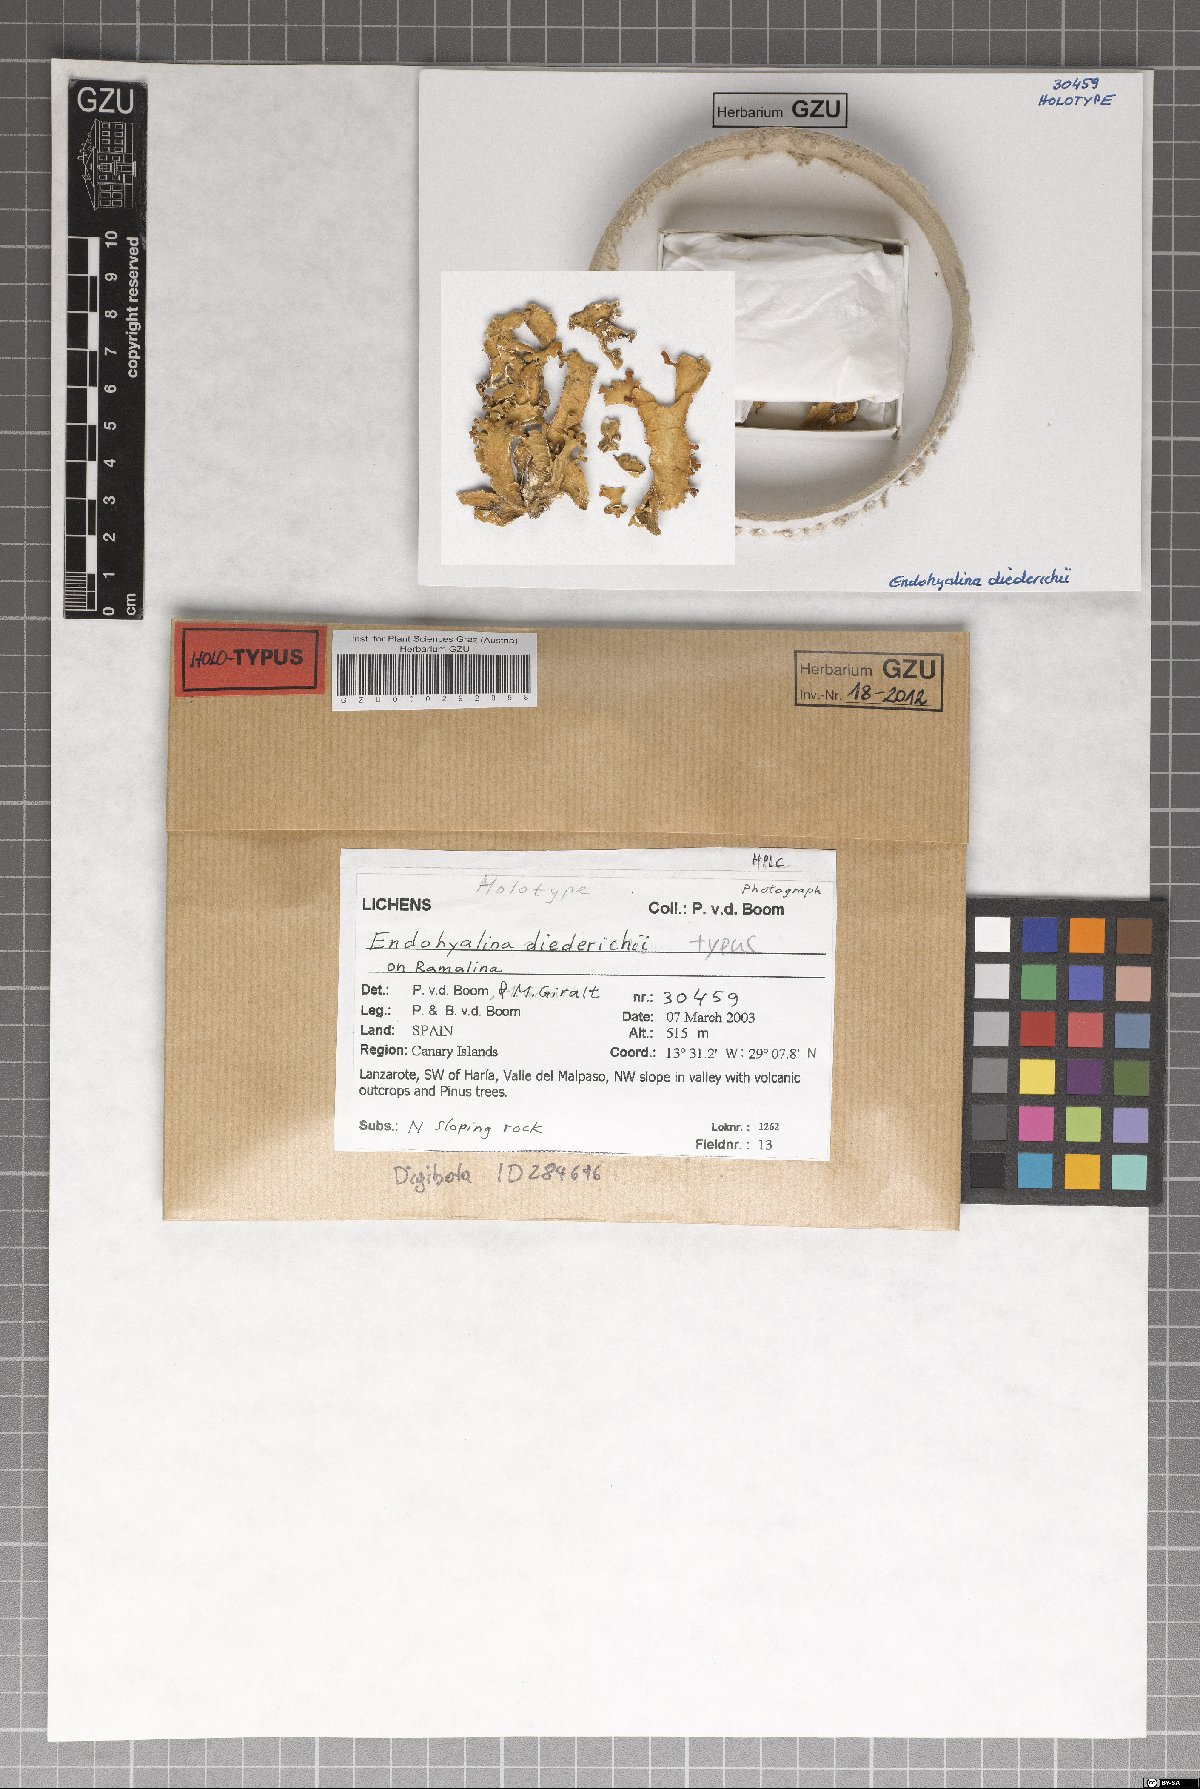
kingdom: Fungi
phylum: Ascomycota
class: Lecanoromycetes
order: Caliciales
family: Caliciaceae
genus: Endohyalina
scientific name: Endohyalina diederichii
